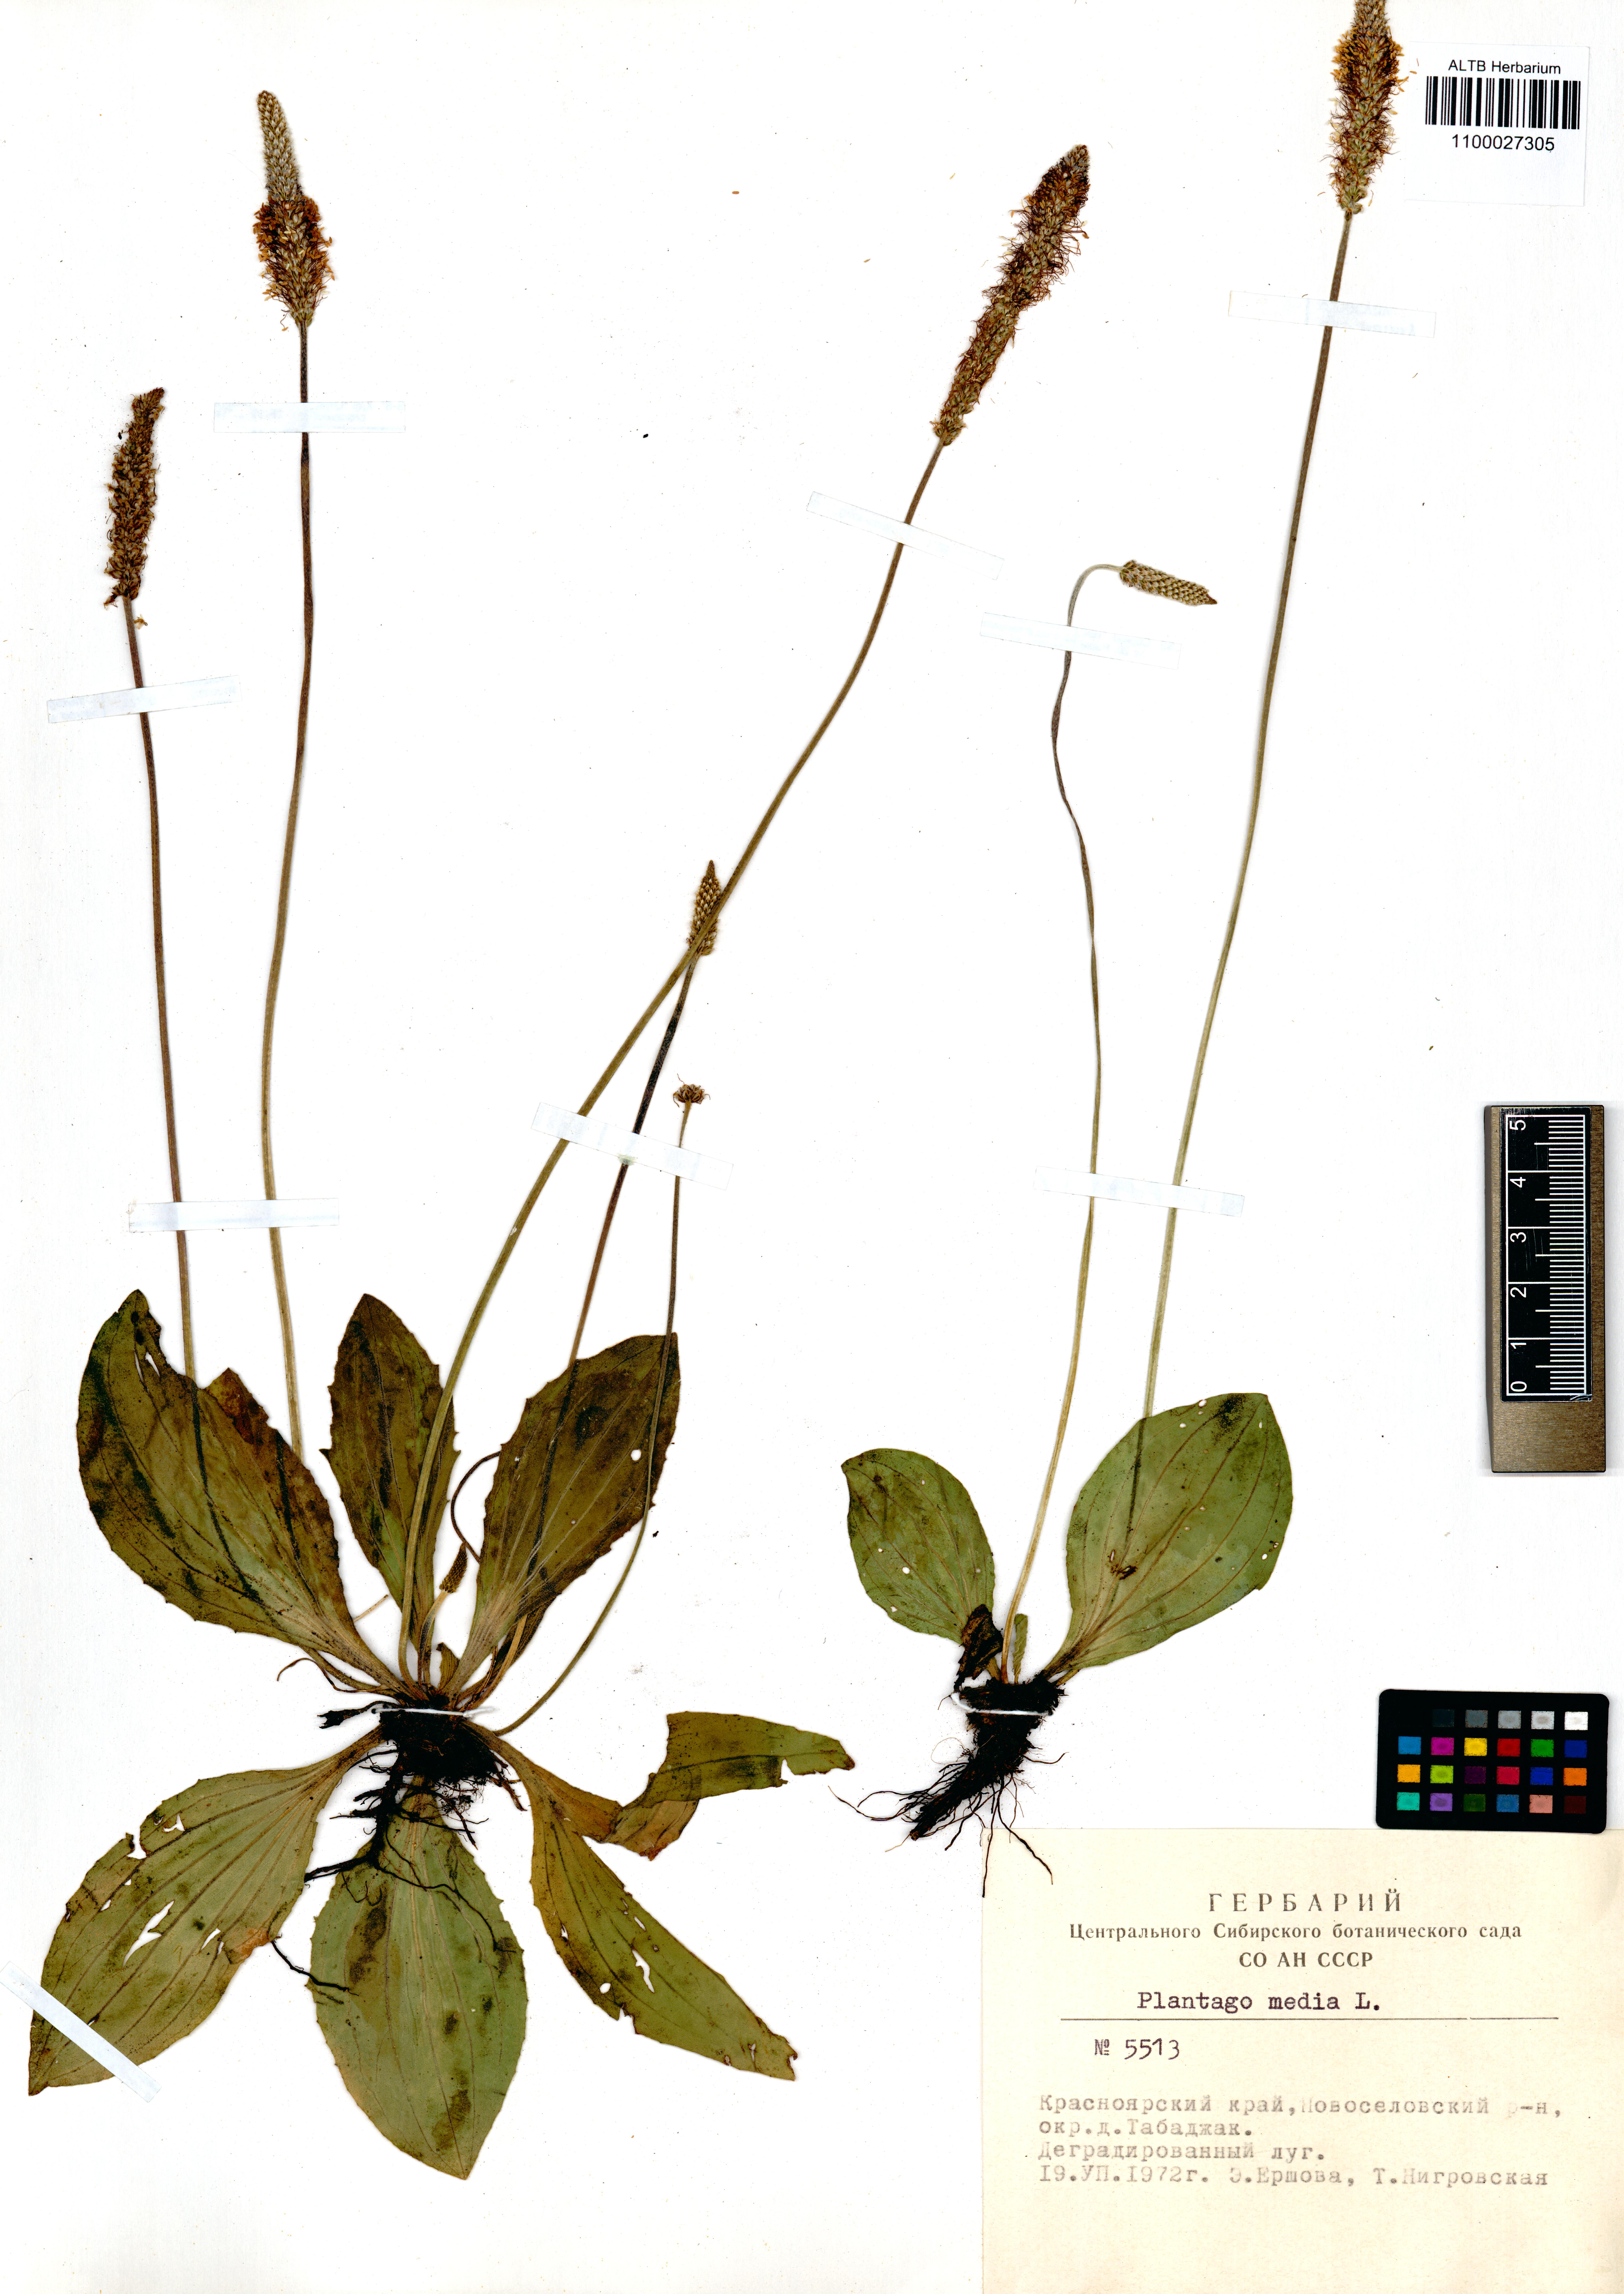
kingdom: Plantae
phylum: Tracheophyta
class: Magnoliopsida
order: Lamiales
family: Plantaginaceae
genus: Plantago
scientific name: Plantago media
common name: Hoary plantain
